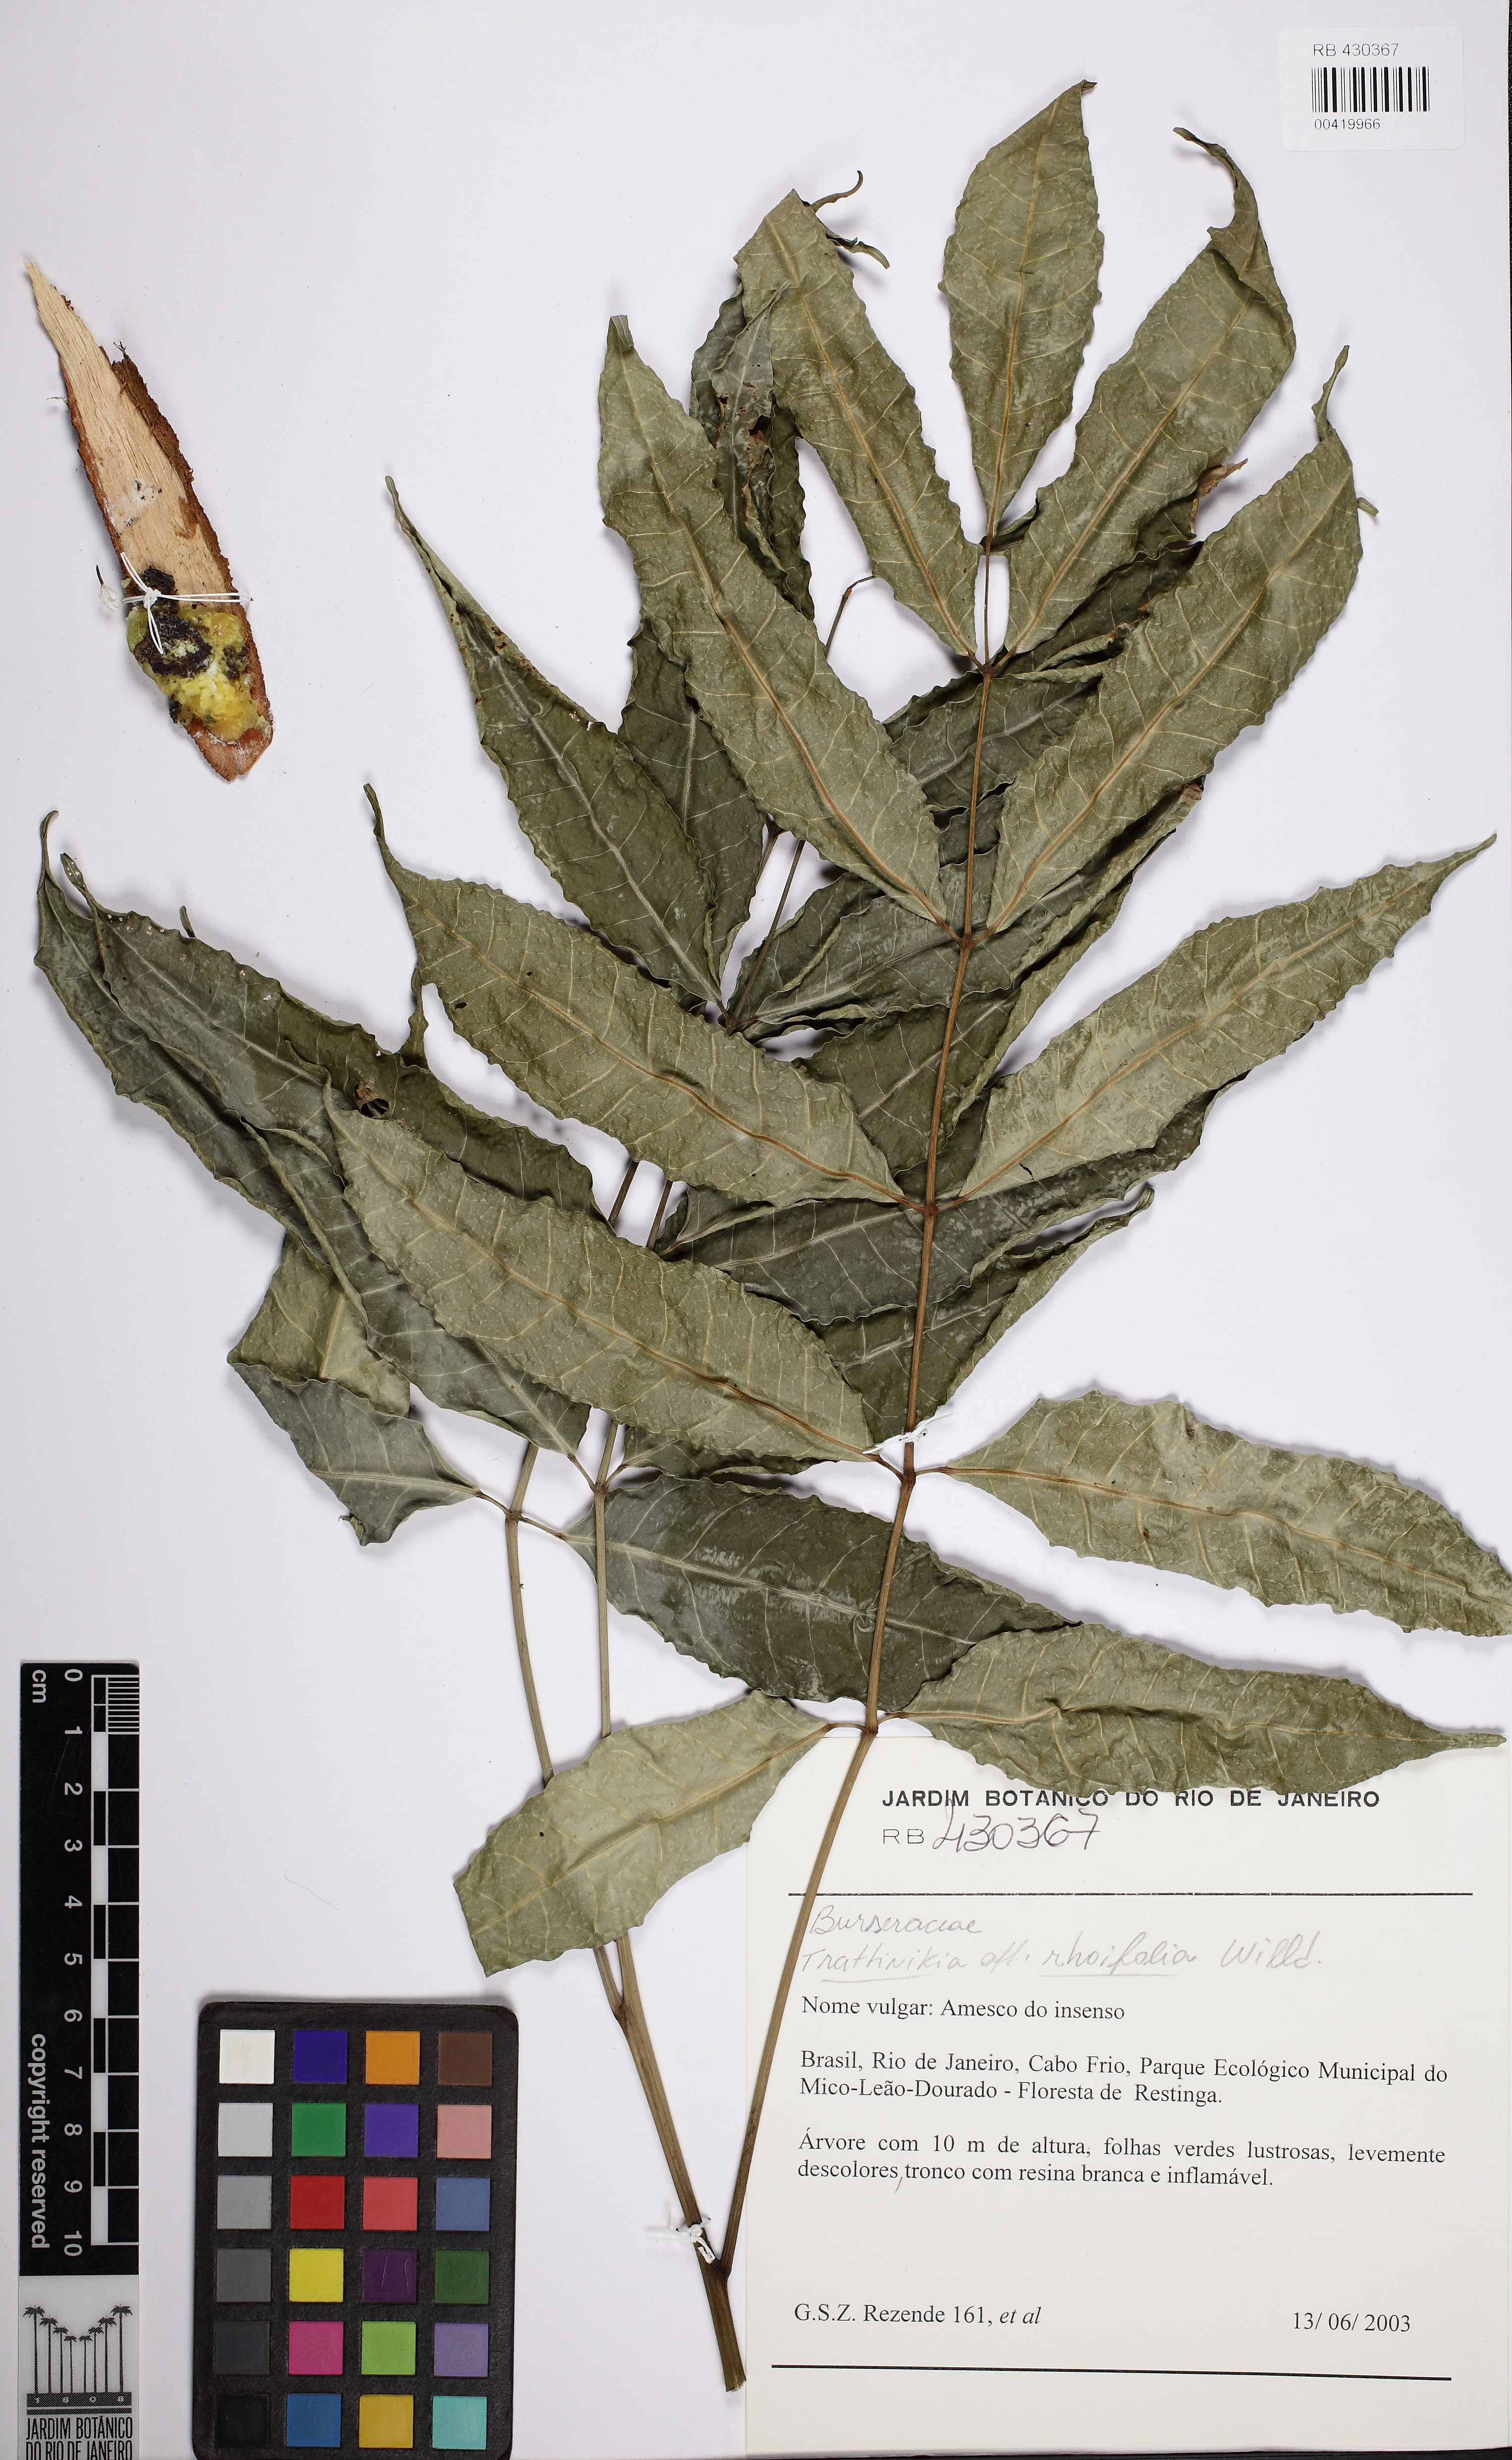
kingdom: Plantae
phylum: Tracheophyta
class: Magnoliopsida
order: Sapindales
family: Burseraceae
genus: Protium
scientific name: Protium
